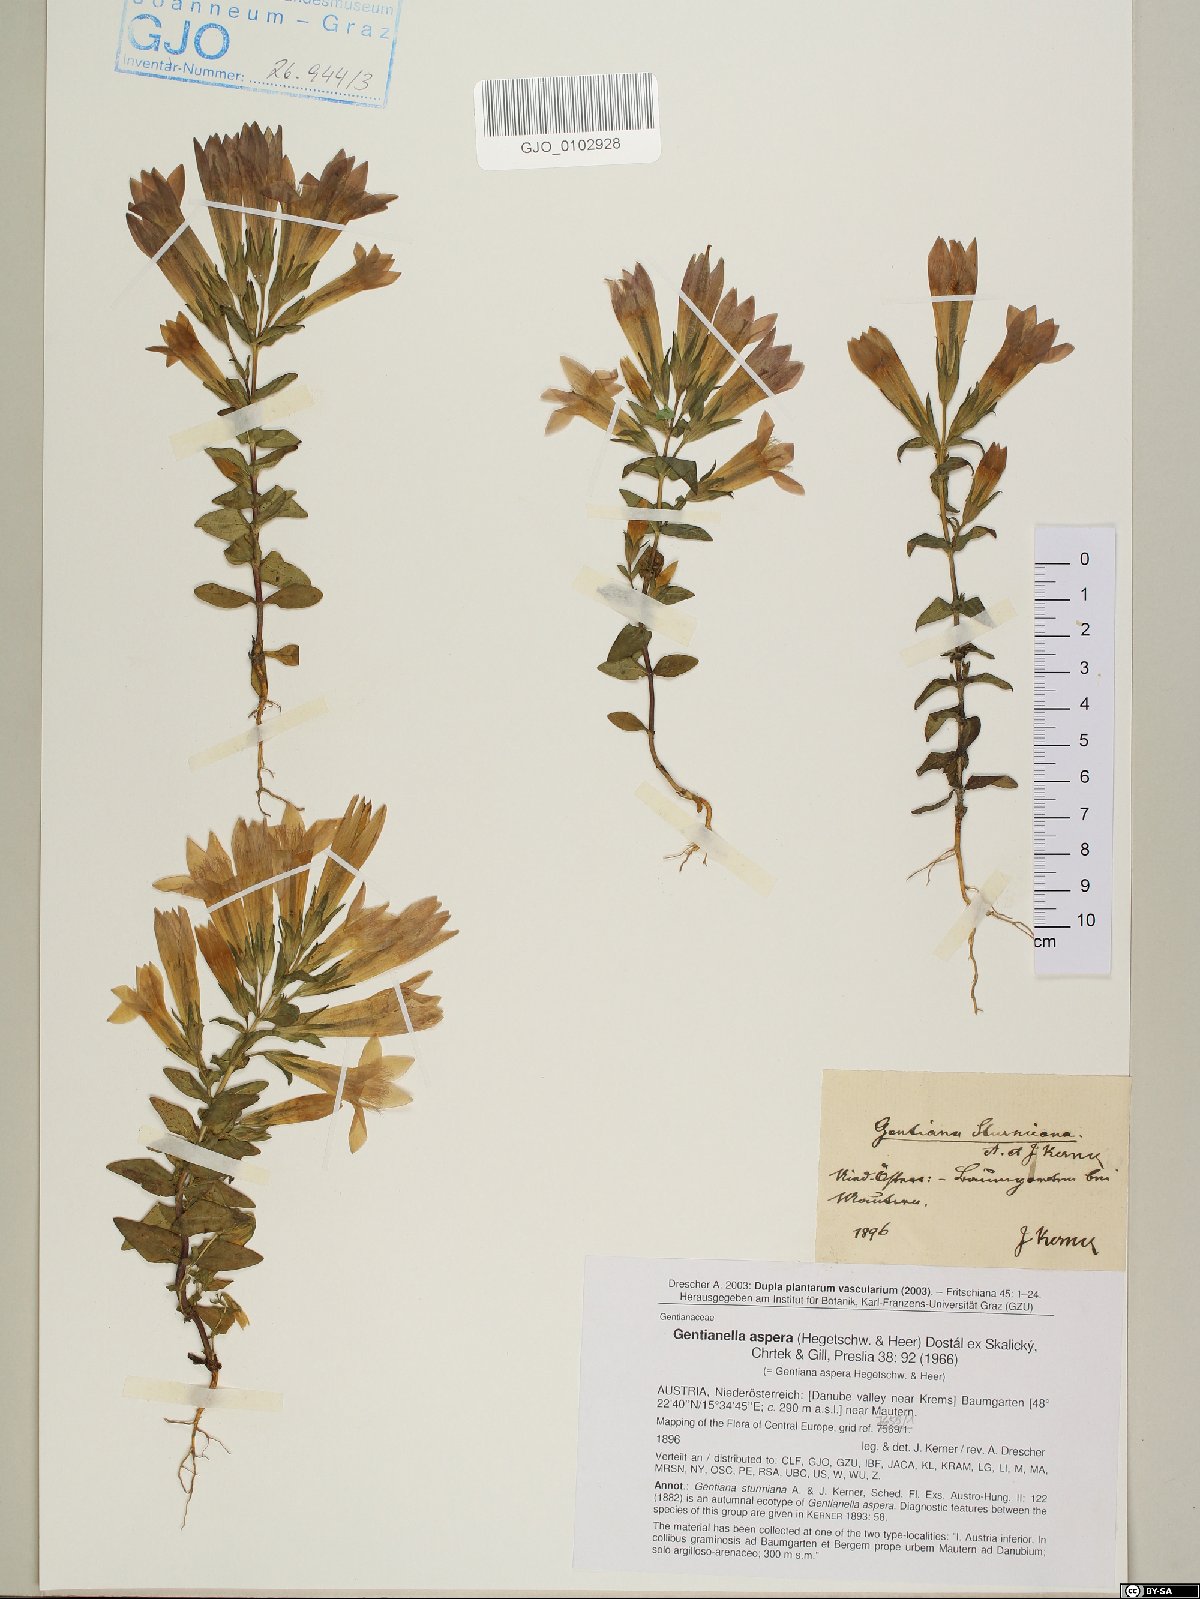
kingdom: Plantae
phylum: Tracheophyta
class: Magnoliopsida
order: Gentianales
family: Gentianaceae
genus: Gentianella
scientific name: Gentianella obtusifolia
